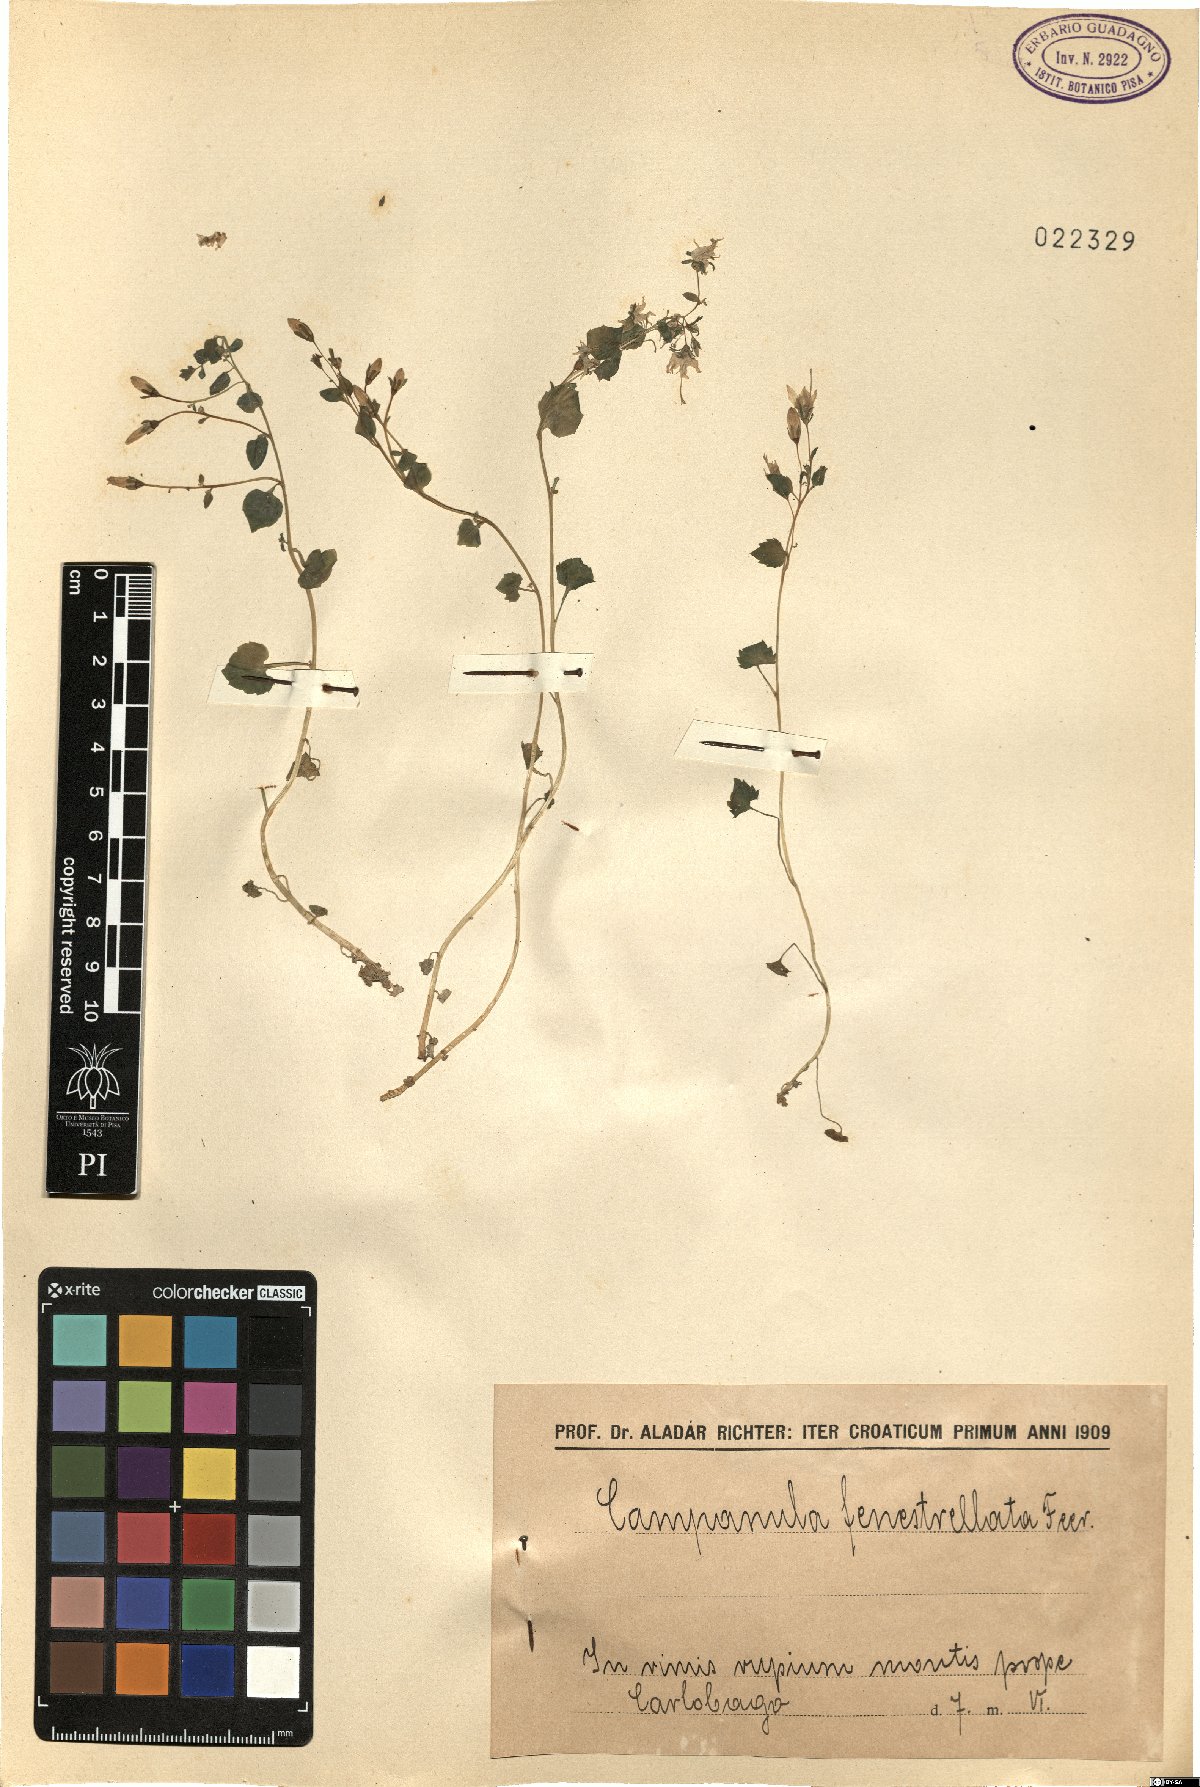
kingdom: Plantae
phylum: Tracheophyta
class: Magnoliopsida
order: Asterales
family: Campanulaceae
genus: Campanula
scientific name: Campanula fenestrellata
